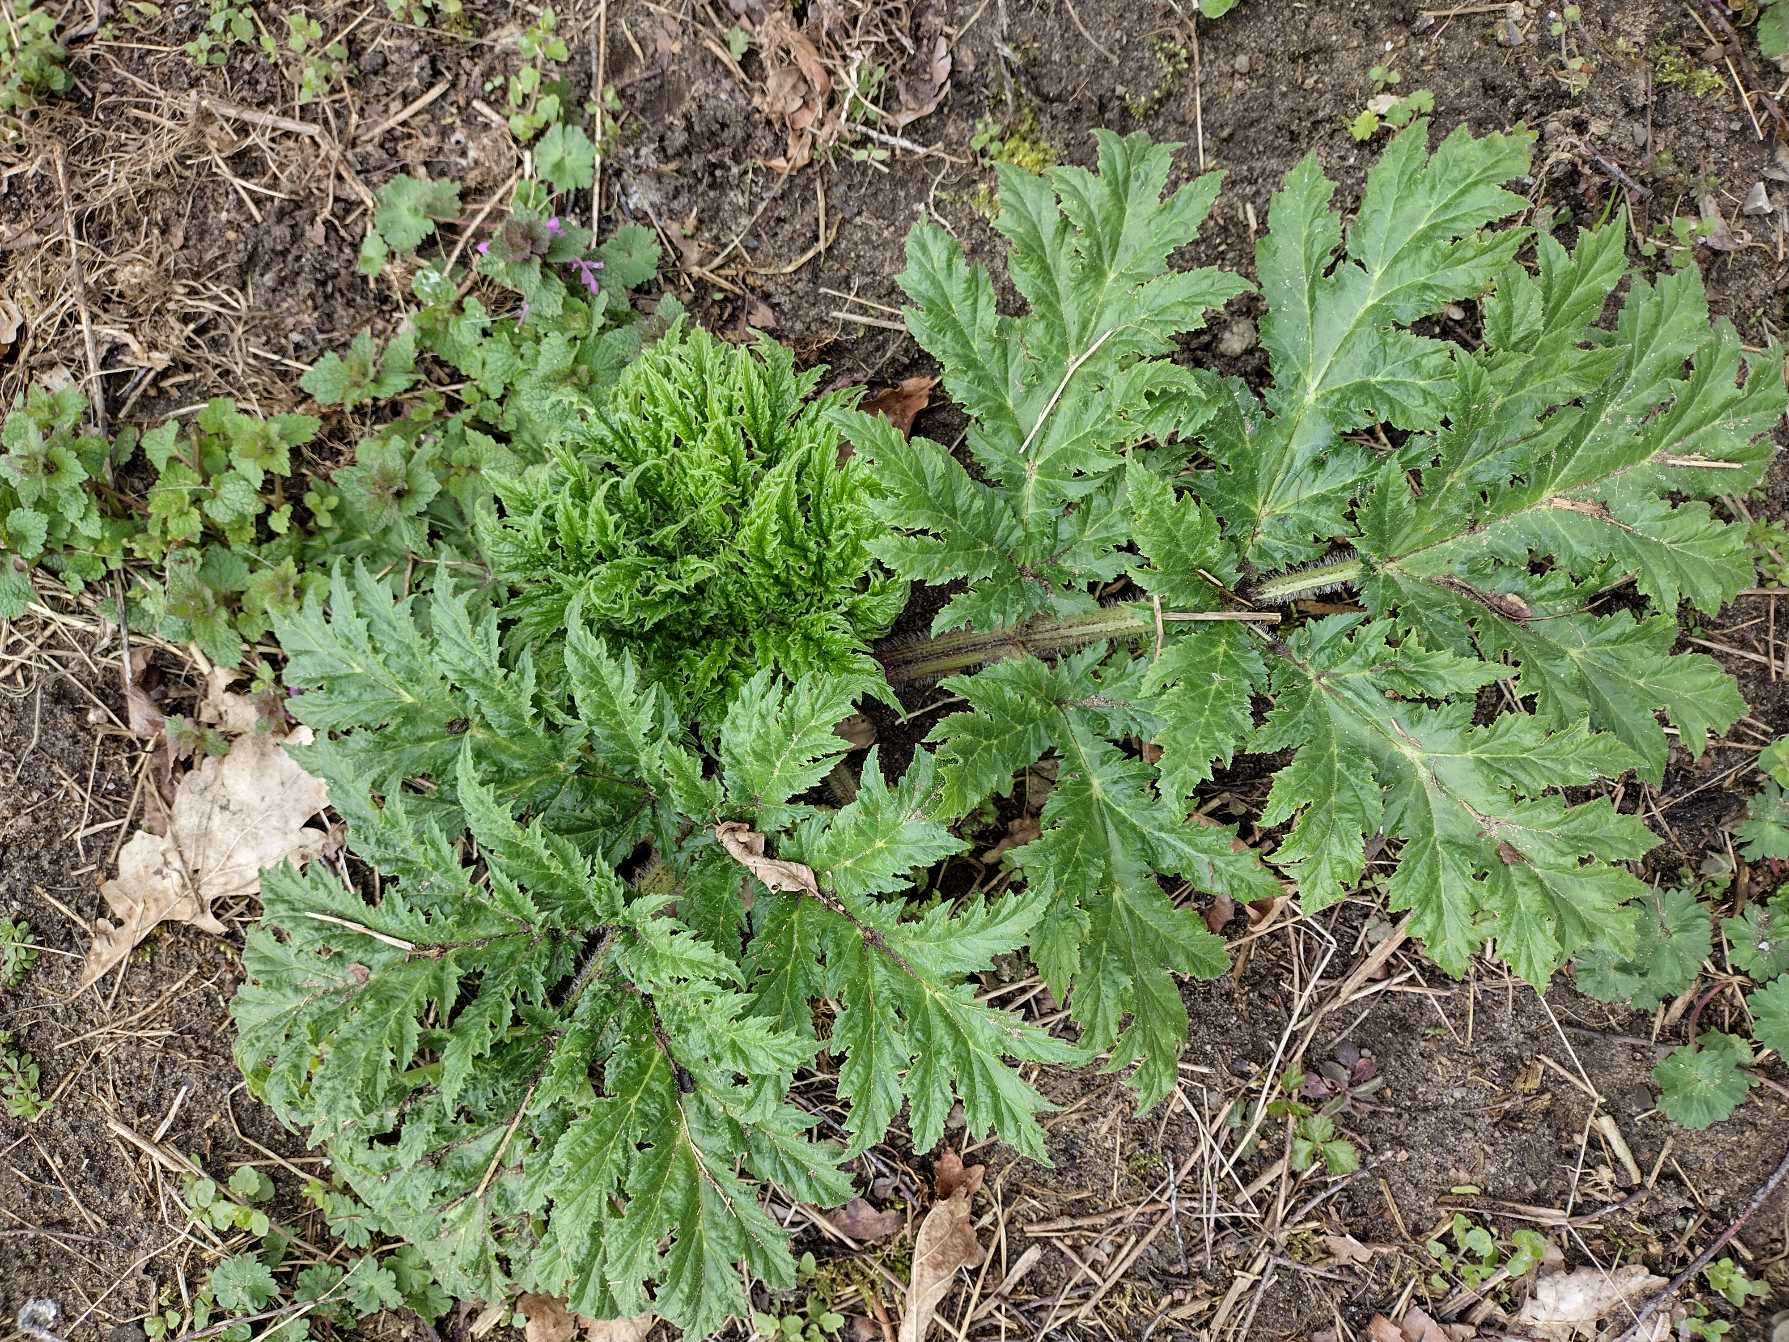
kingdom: Plantae
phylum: Tracheophyta
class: Magnoliopsida
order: Apiales
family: Apiaceae
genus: Heracleum
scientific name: Heracleum mantegazzianum
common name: Kæmpe-bjørneklo
